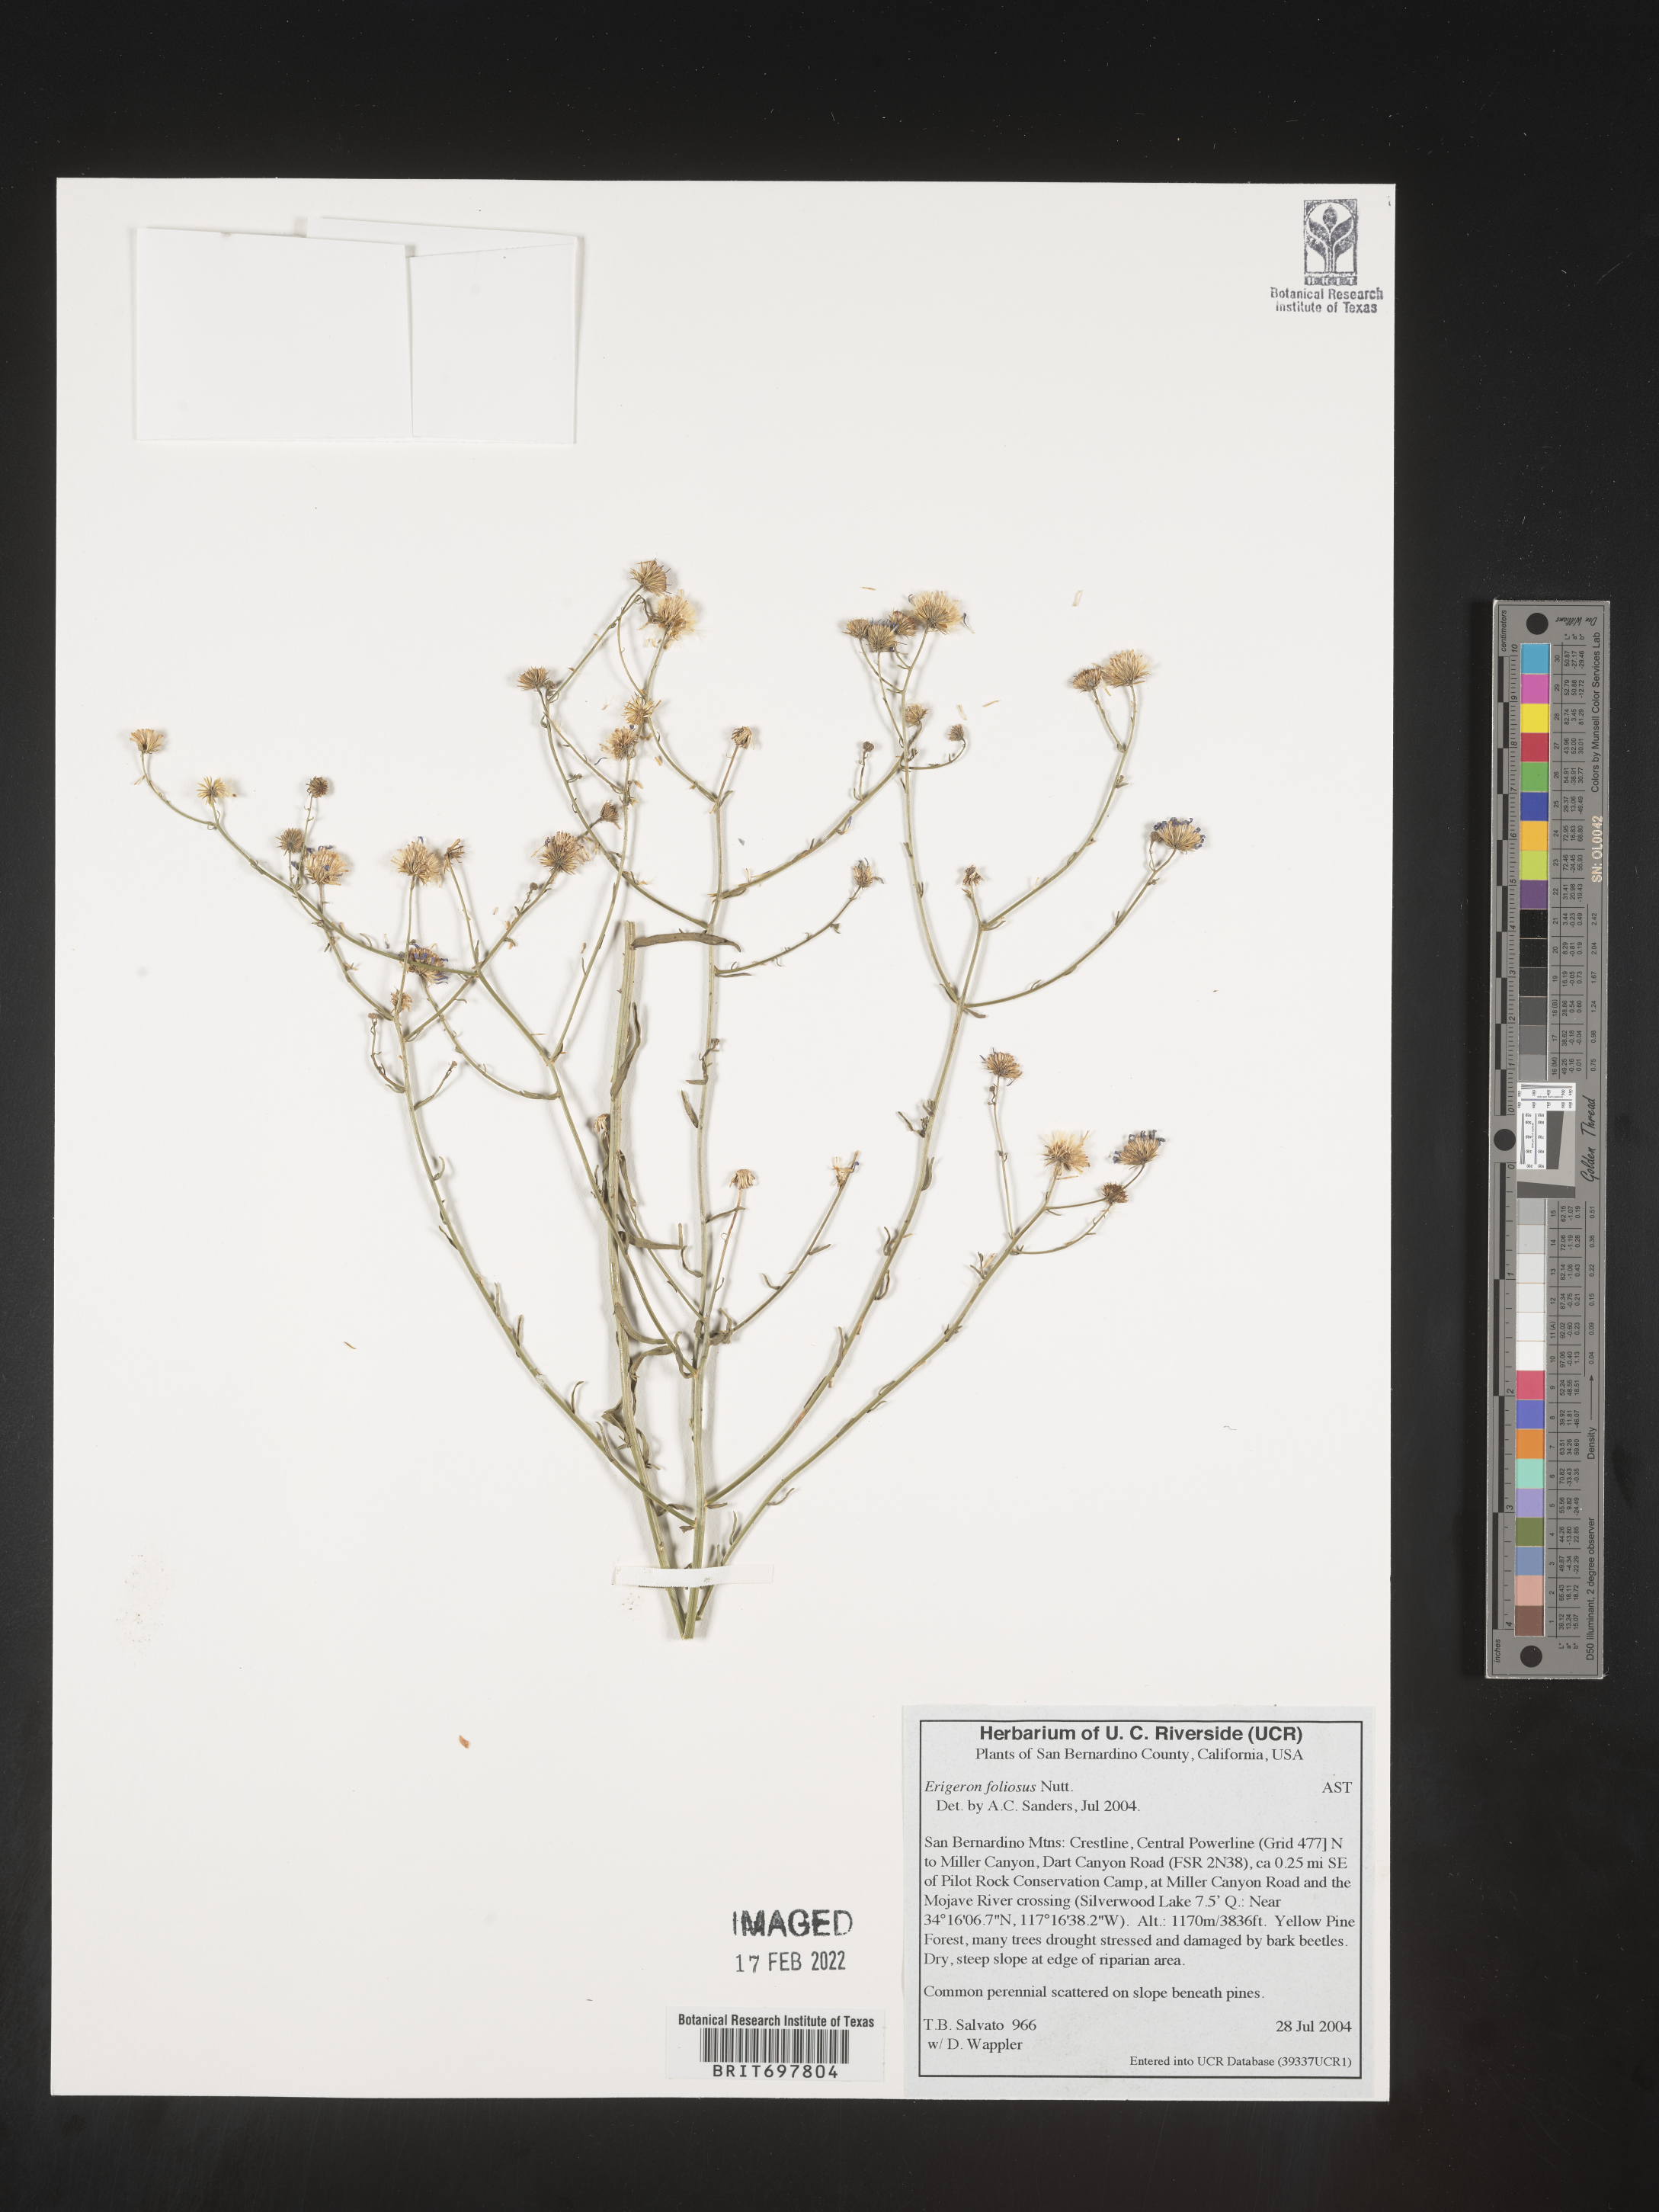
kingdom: Plantae
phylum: Tracheophyta
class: Magnoliopsida
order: Asterales
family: Asteraceae
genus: Erigeron
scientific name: Erigeron foliosus
